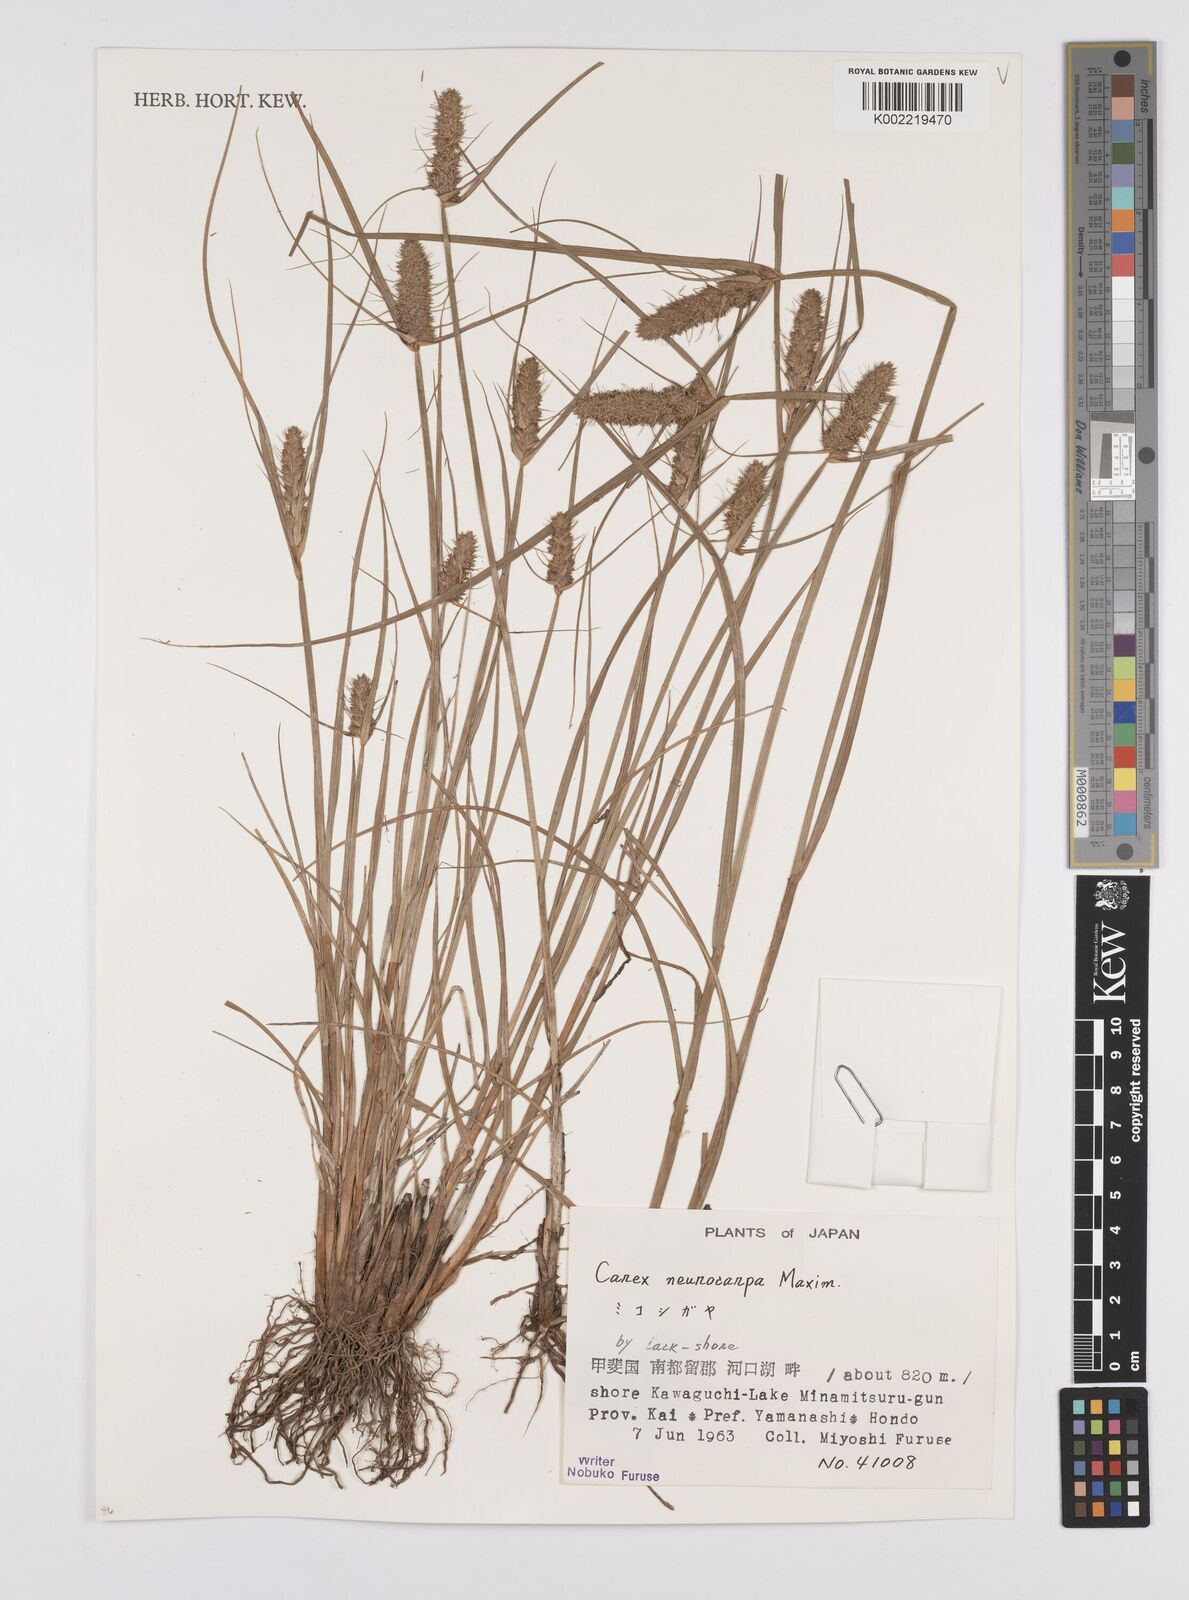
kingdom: Plantae
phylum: Tracheophyta
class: Liliopsida
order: Poales
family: Cyperaceae
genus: Carex
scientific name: Carex neurocarpa
